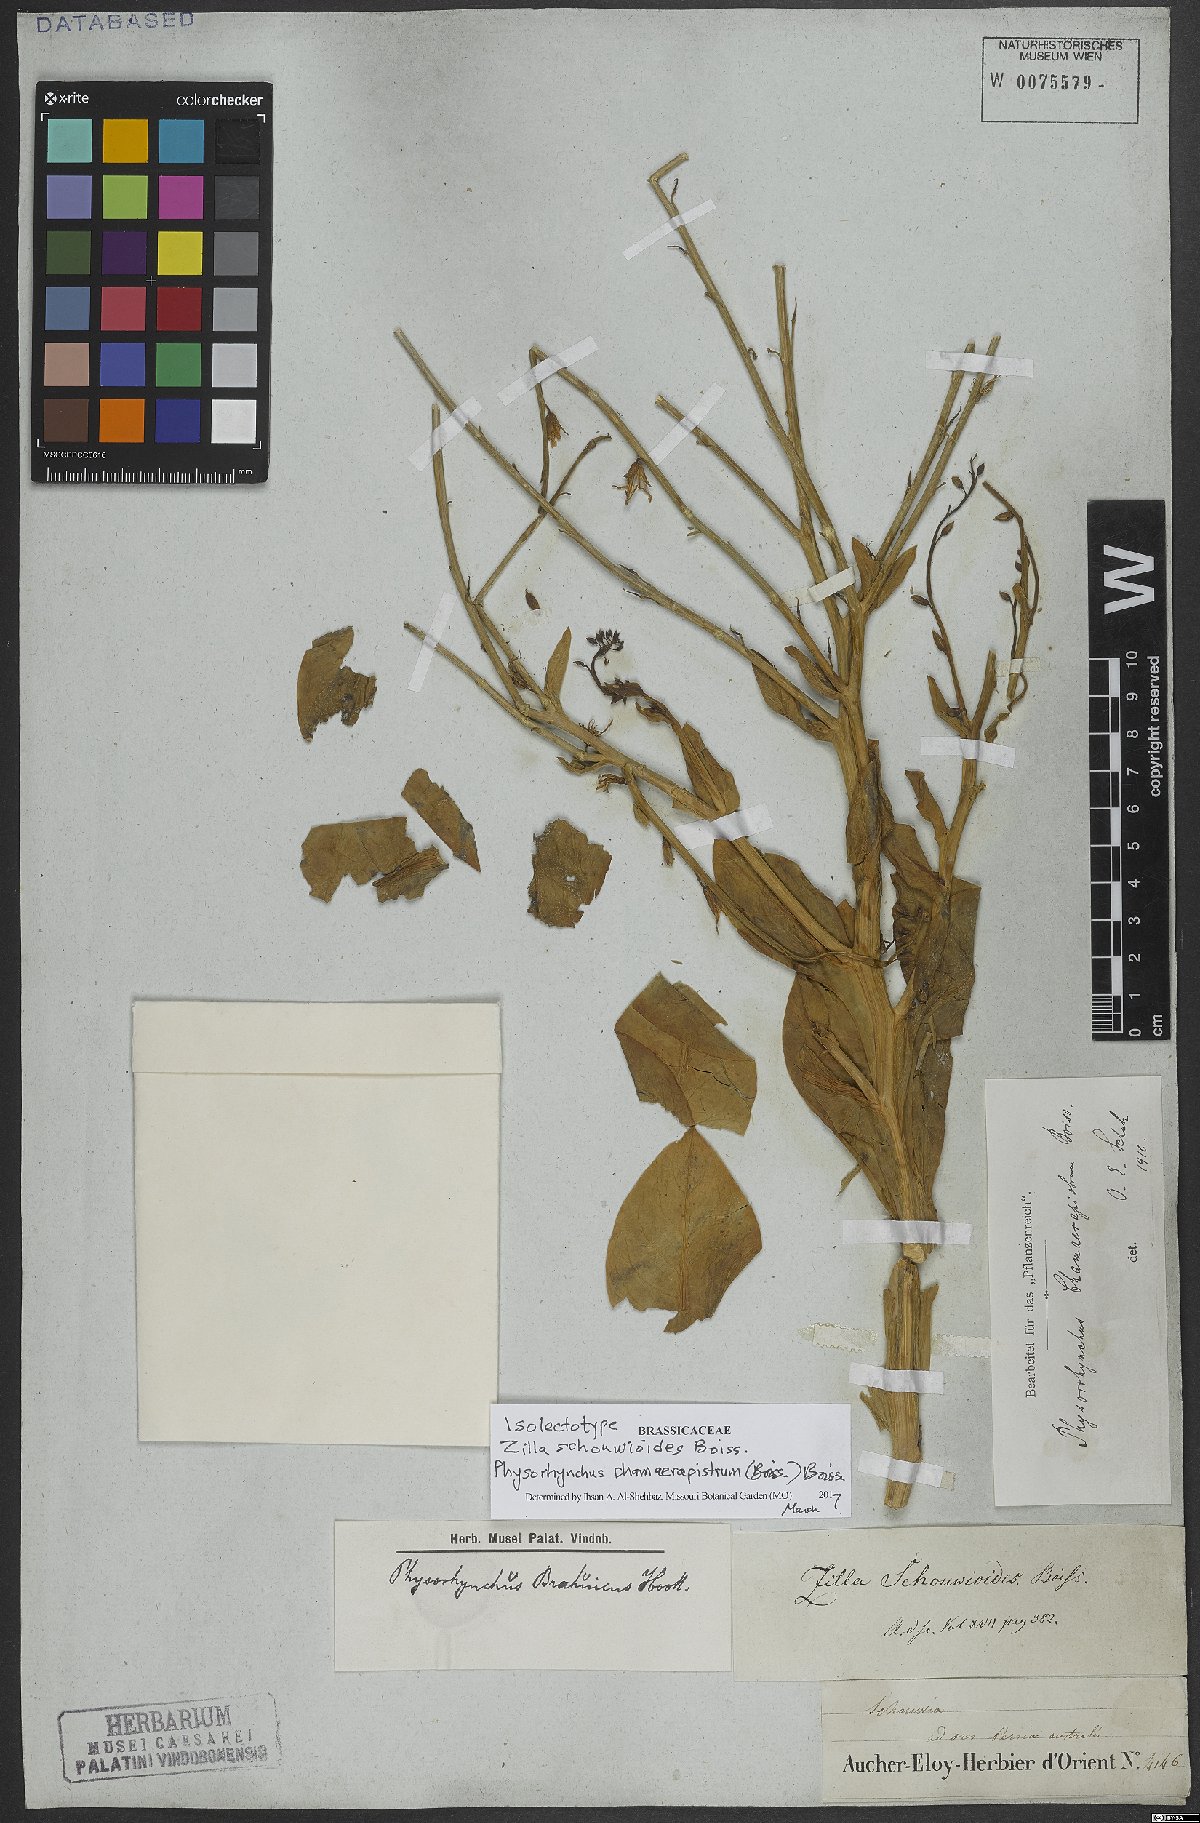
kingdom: Plantae
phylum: Tracheophyta
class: Magnoliopsida
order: Brassicales
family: Brassicaceae
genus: Physorhynchus
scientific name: Physorhynchus chamaerapistrum
